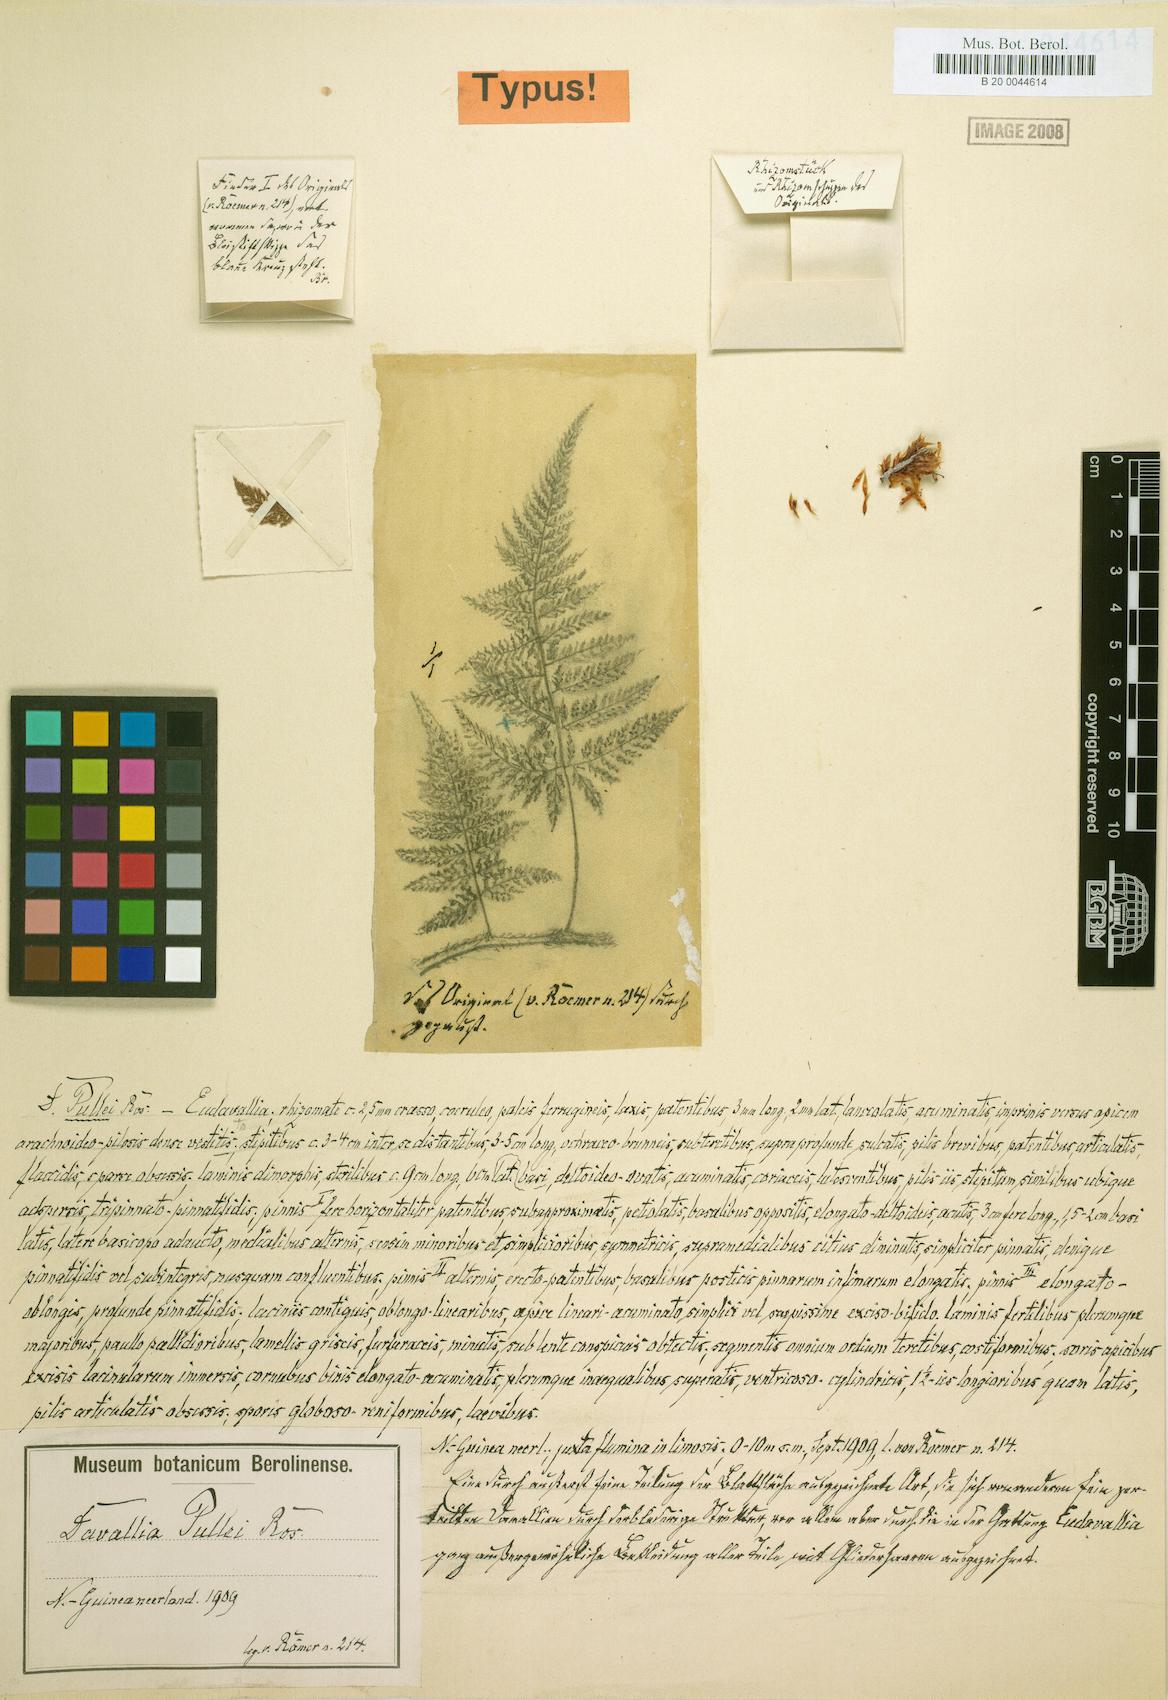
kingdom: Plantae
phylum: Tracheophyta
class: Polypodiopsida
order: Polypodiales
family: Davalliaceae
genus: Davallia
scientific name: Davallia brevipes
